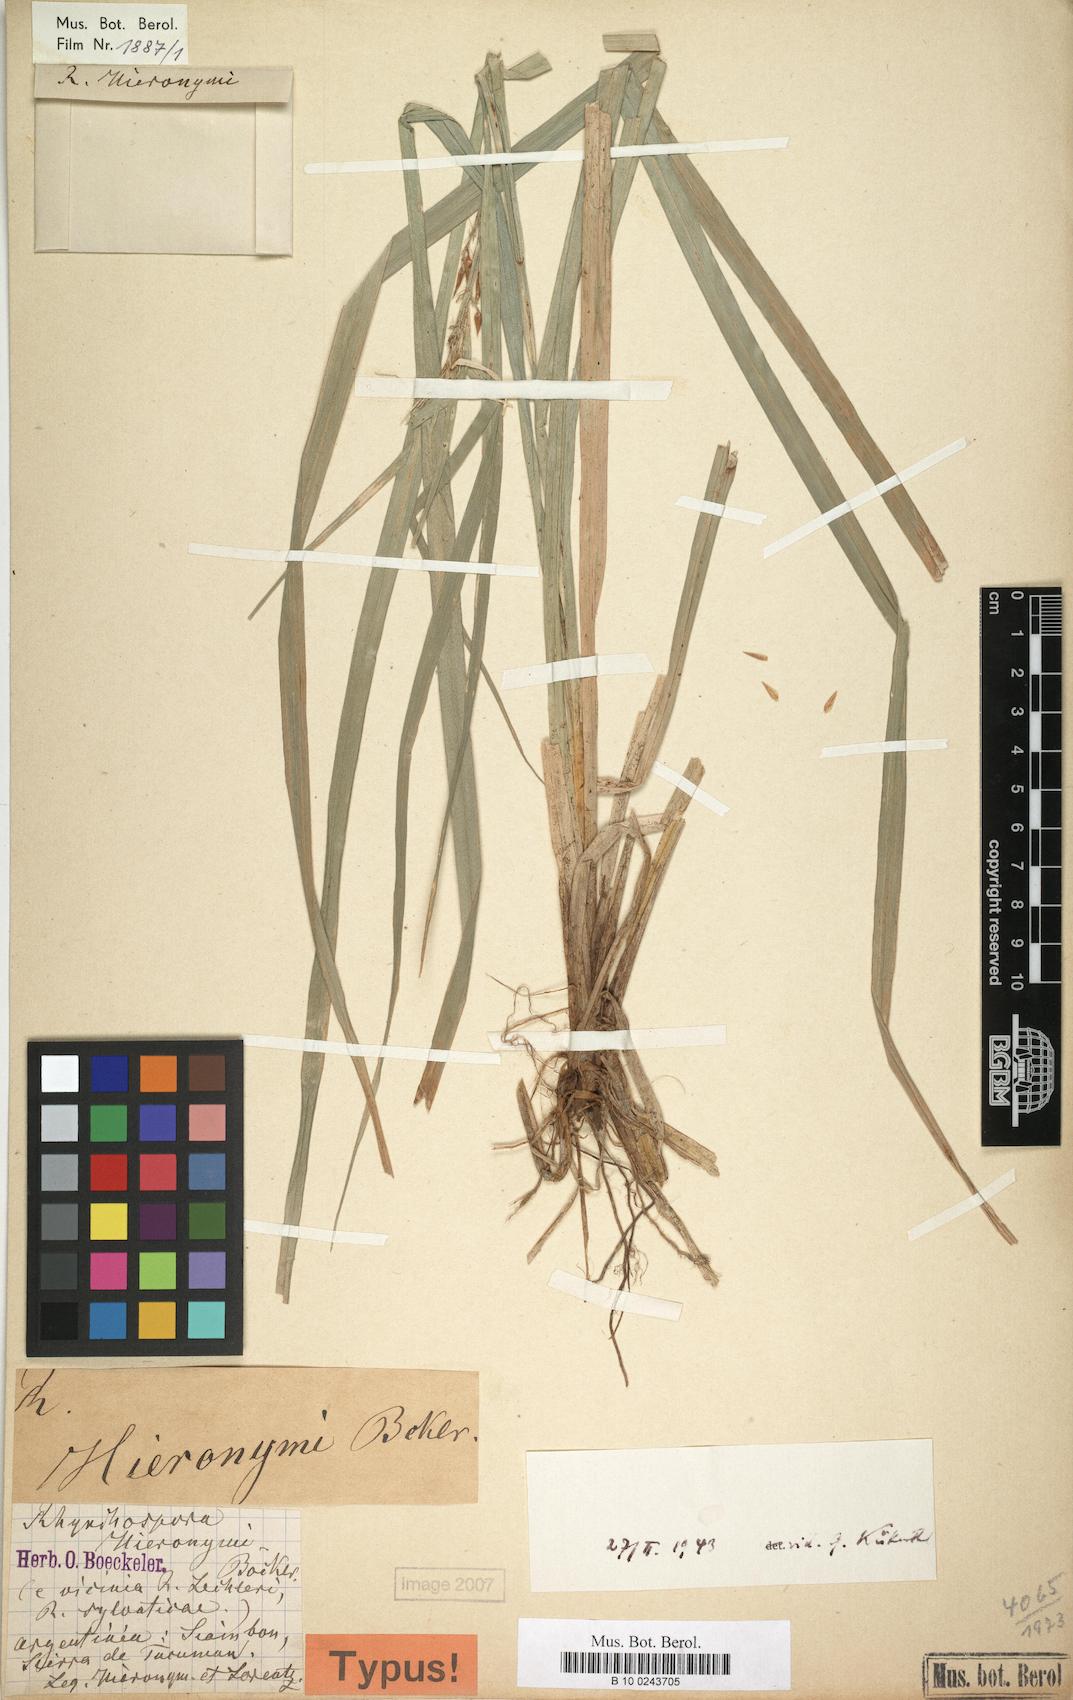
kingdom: Plantae
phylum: Tracheophyta
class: Liliopsida
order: Poales
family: Cyperaceae
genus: Rhynchospora
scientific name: Rhynchospora hieronymi
